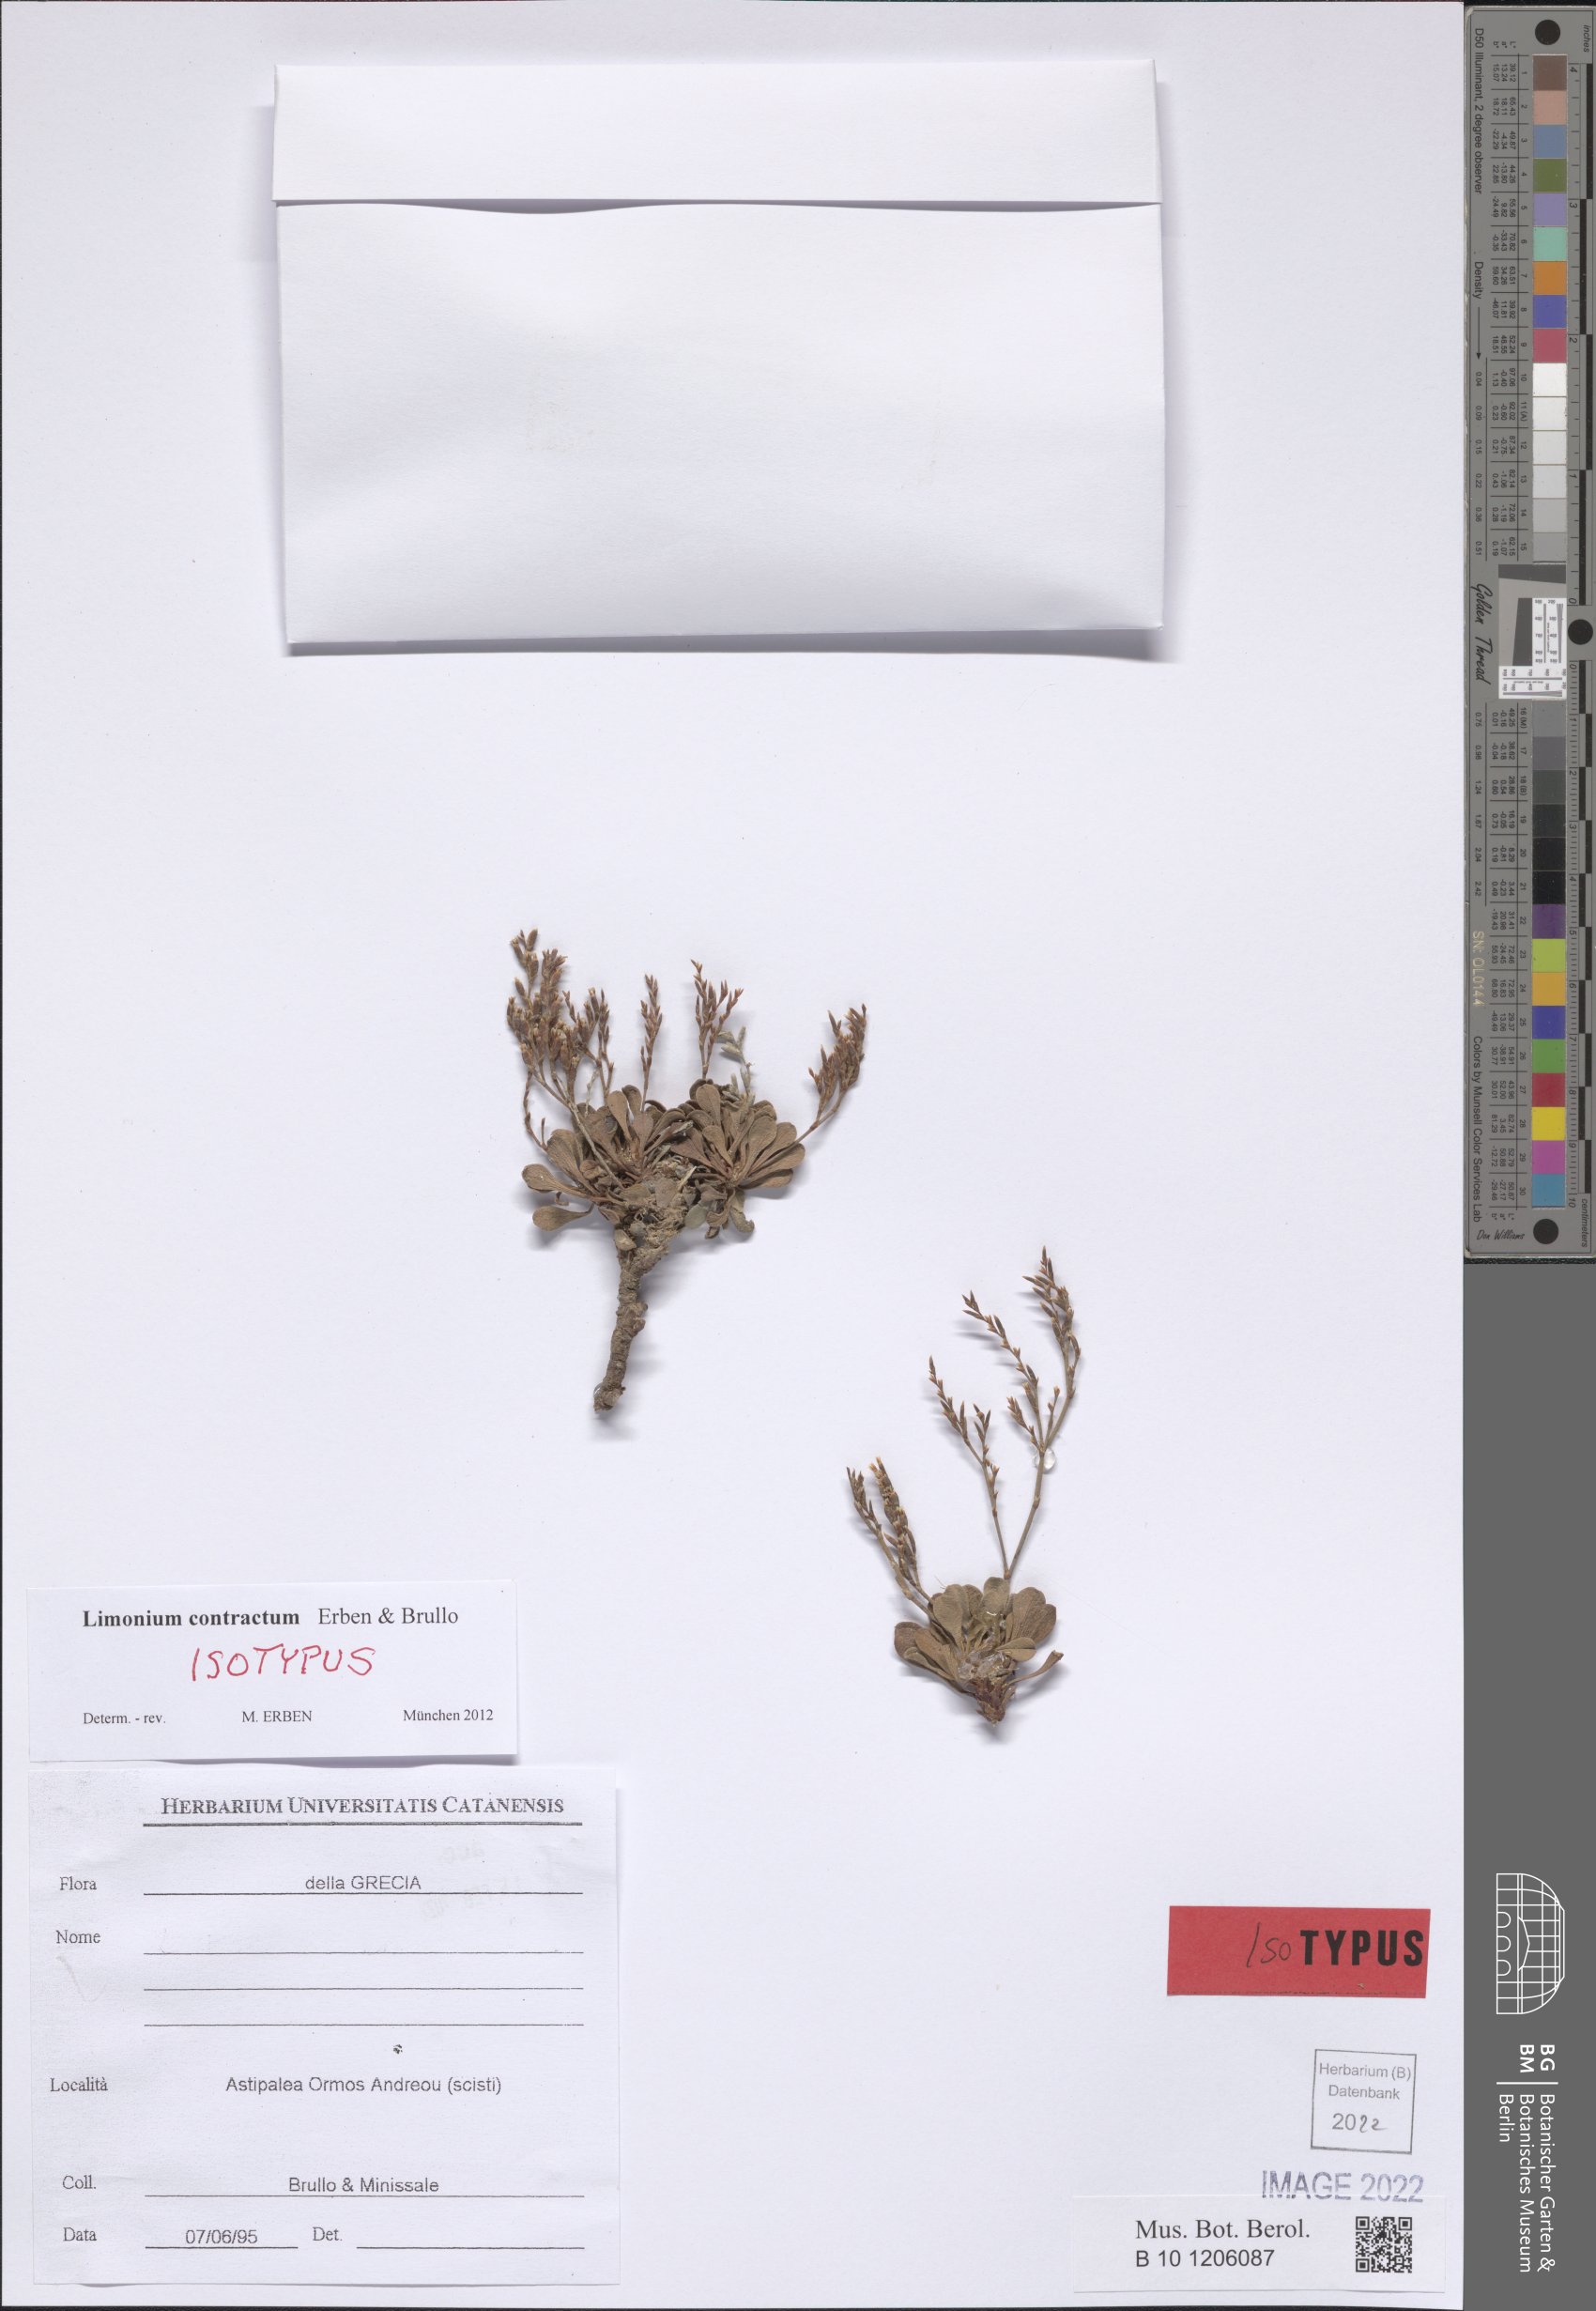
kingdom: Plantae
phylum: Tracheophyta
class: Magnoliopsida
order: Caryophyllales
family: Plumbaginaceae
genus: Limonium
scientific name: Limonium contractum
